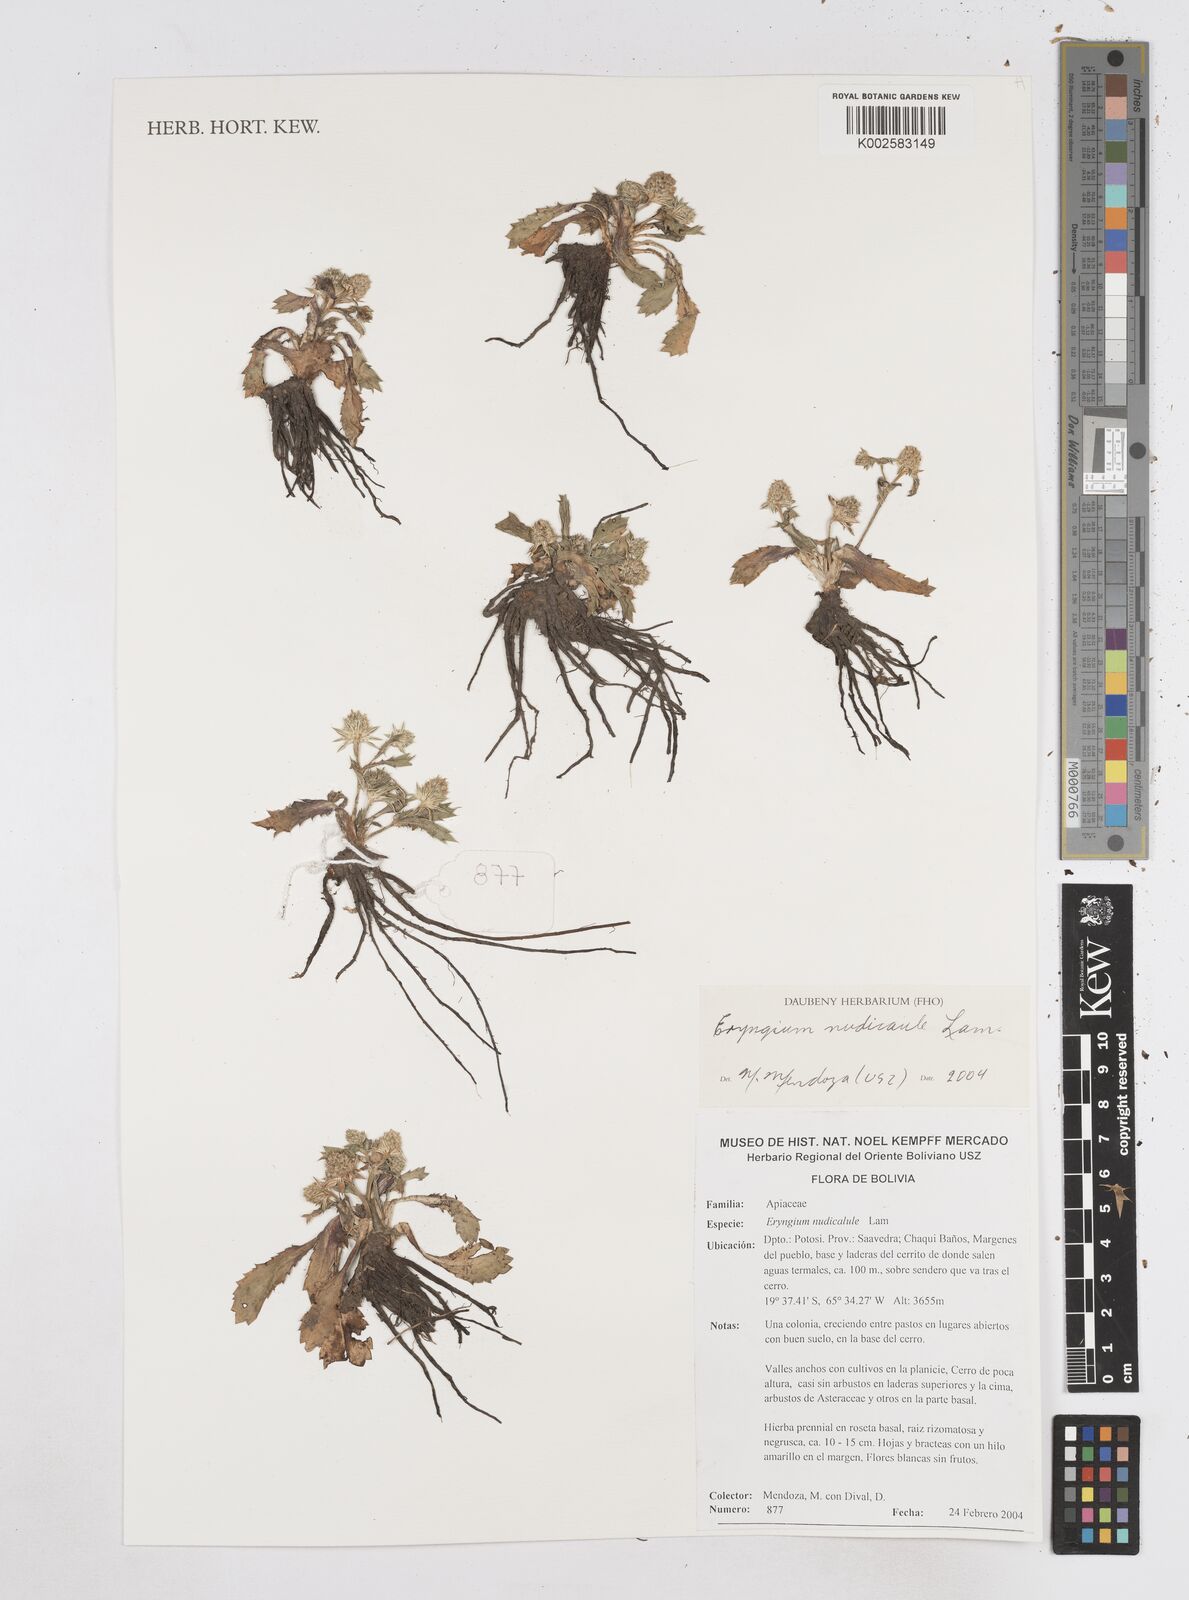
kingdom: Plantae
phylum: Tracheophyta
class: Magnoliopsida
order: Apiales
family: Apiaceae
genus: Eryngium
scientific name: Eryngium nudicaule
